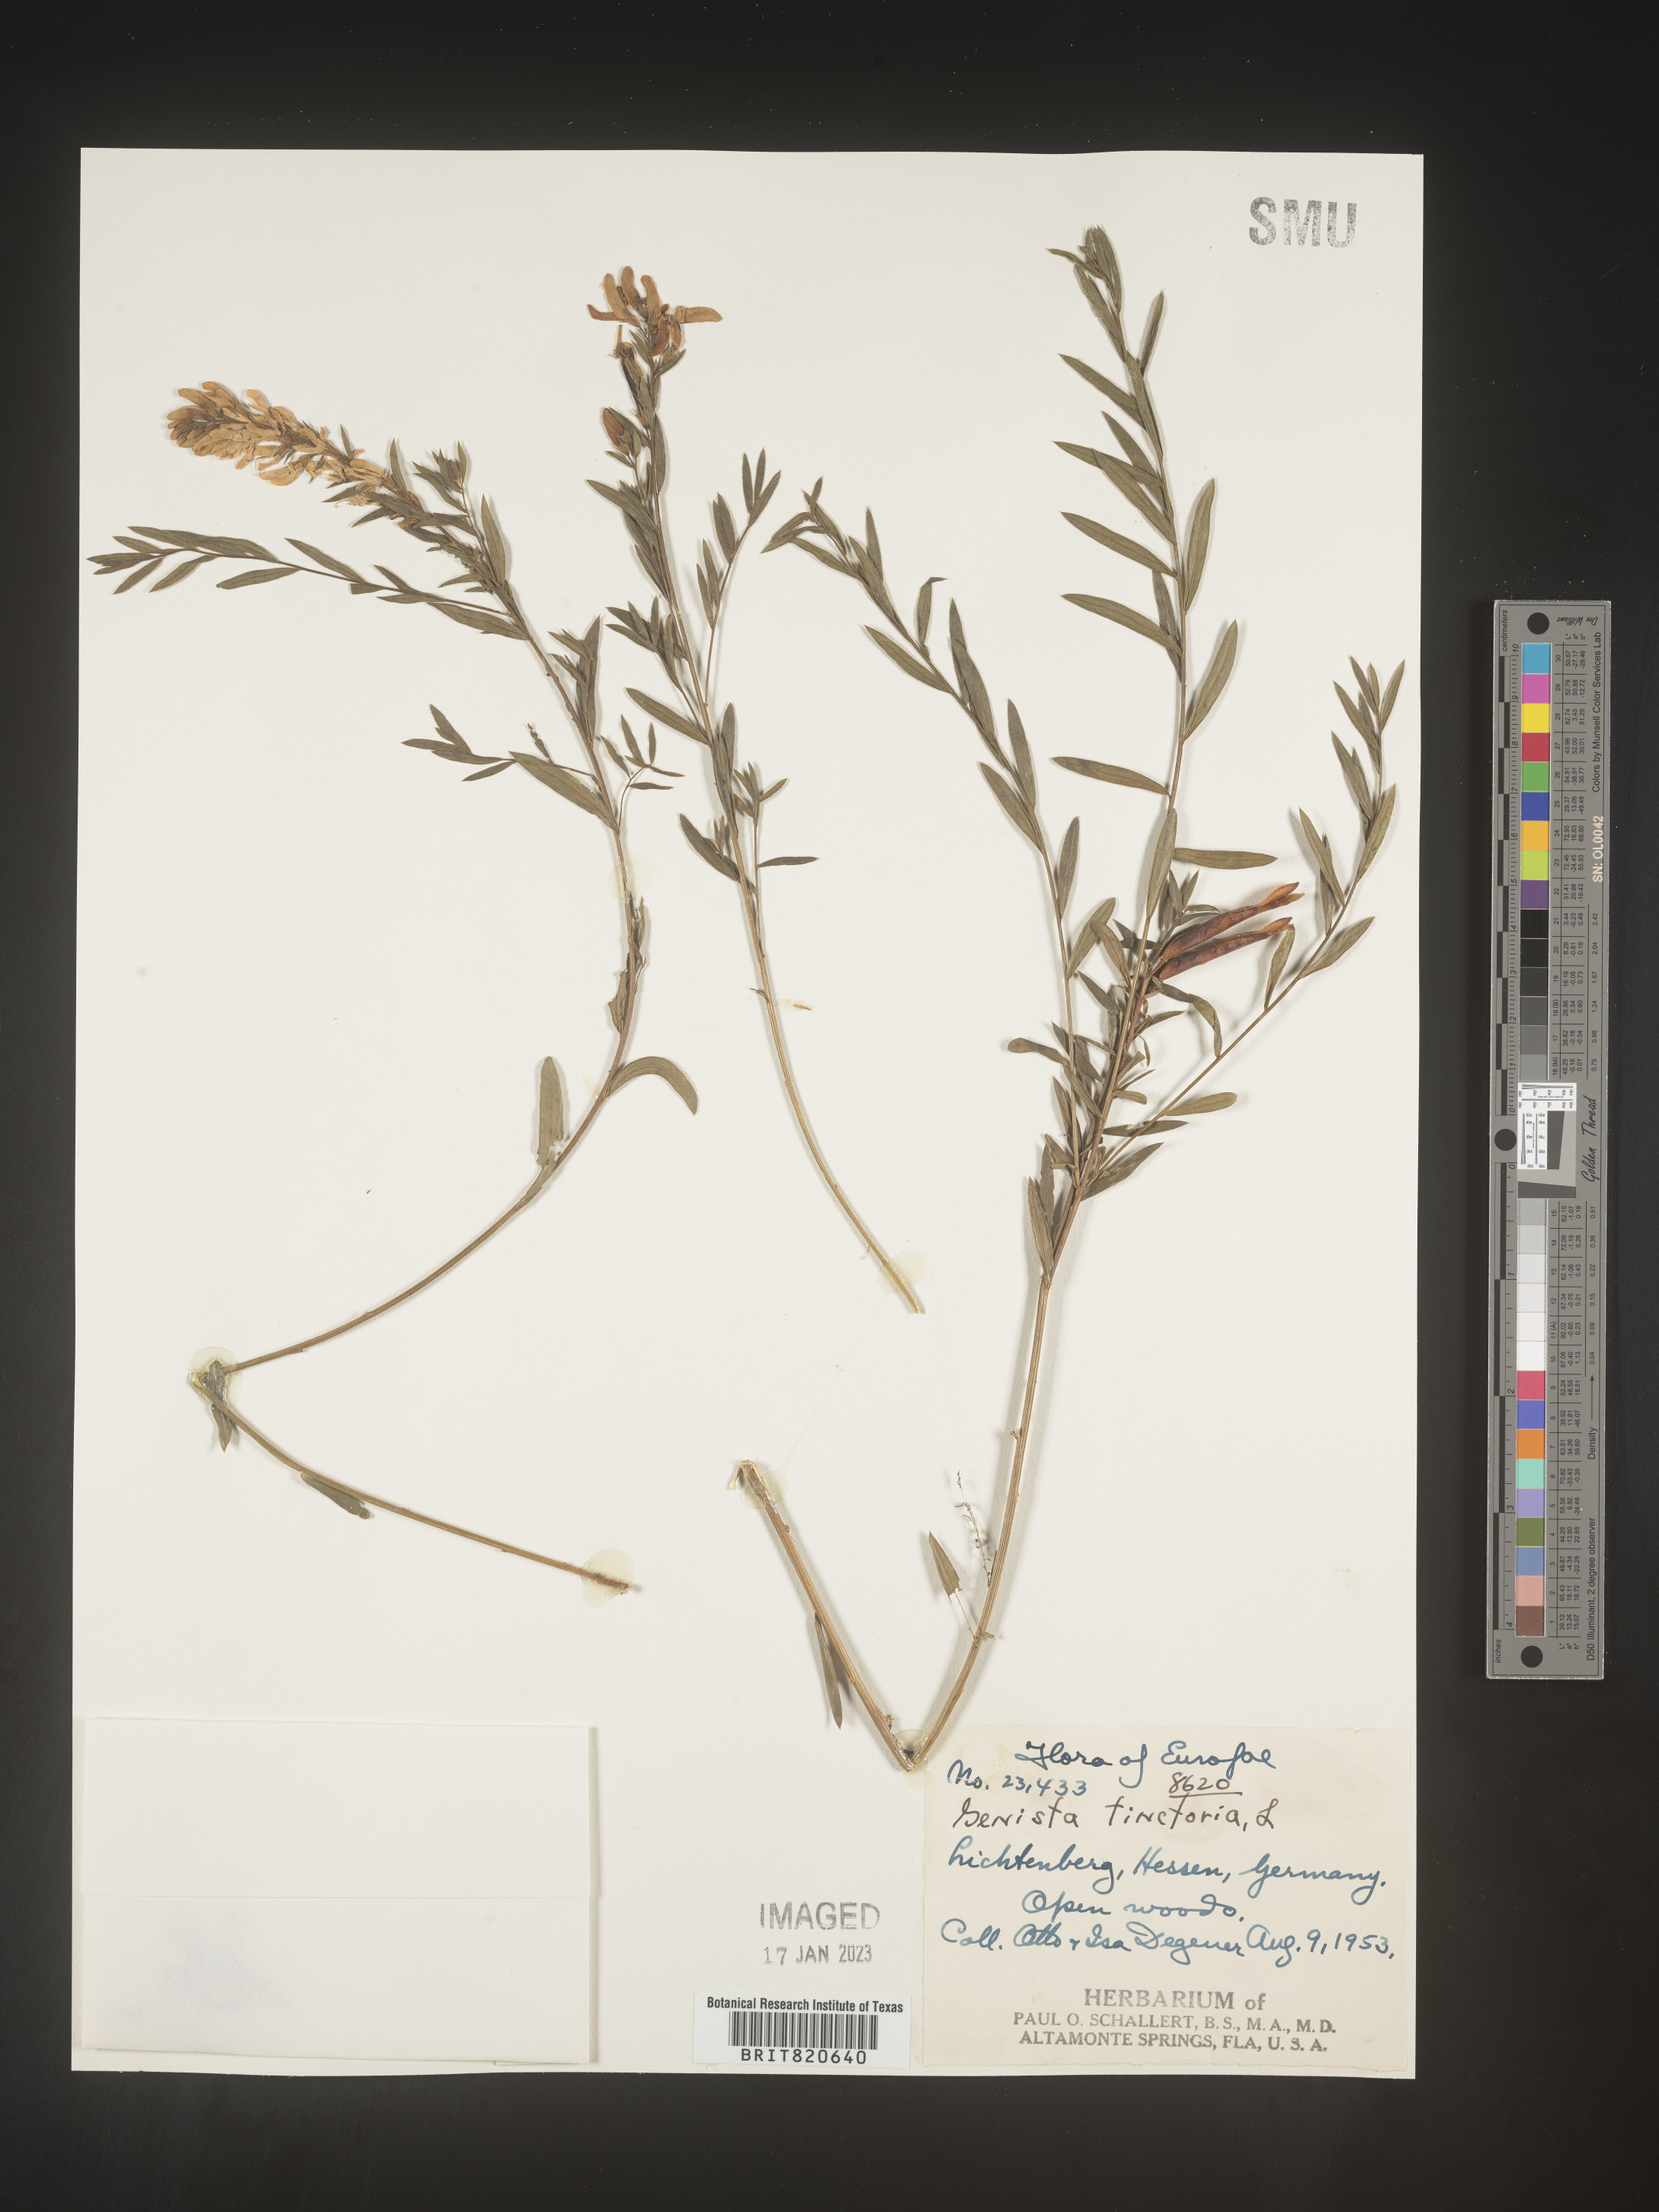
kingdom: Plantae
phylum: Tracheophyta
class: Magnoliopsida
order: Fabales
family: Fabaceae
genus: Genista
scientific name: Genista tinctoria
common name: Dyer's greenweed
